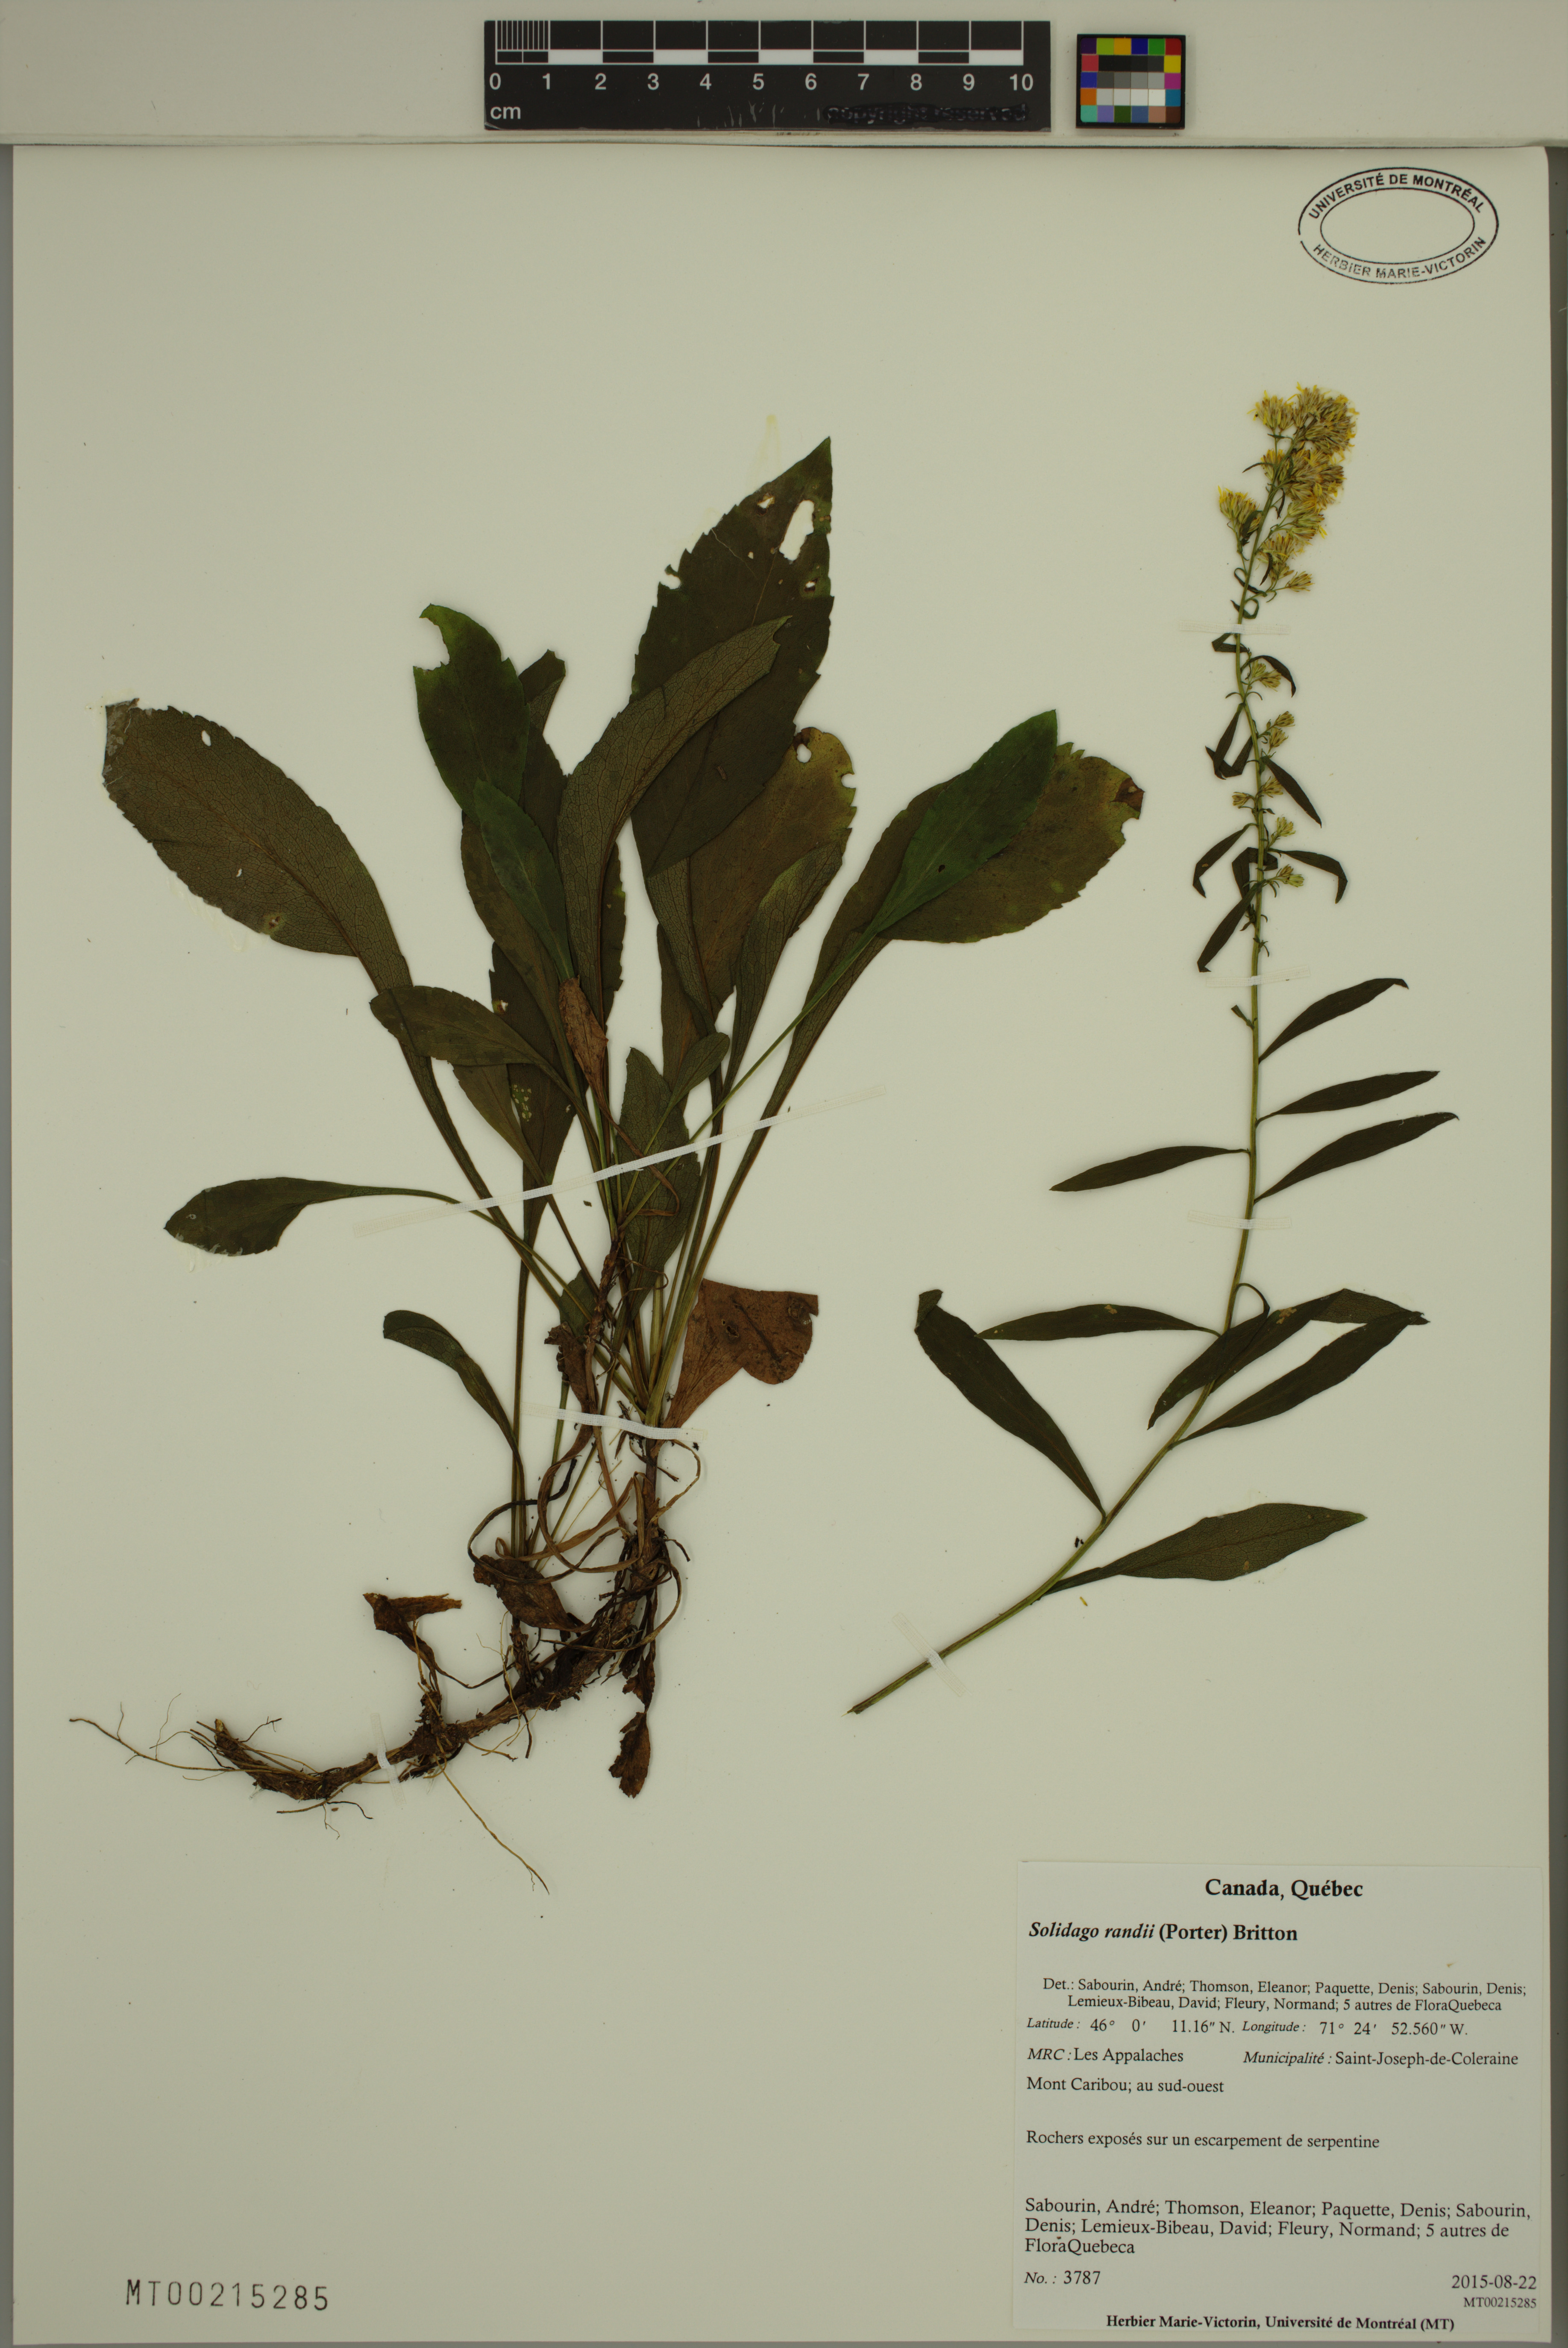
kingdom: Plantae
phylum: Tracheophyta
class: Magnoliopsida
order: Asterales
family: Asteraceae
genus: Solidago
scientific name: Solidago randii
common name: Rand's goldenrod
